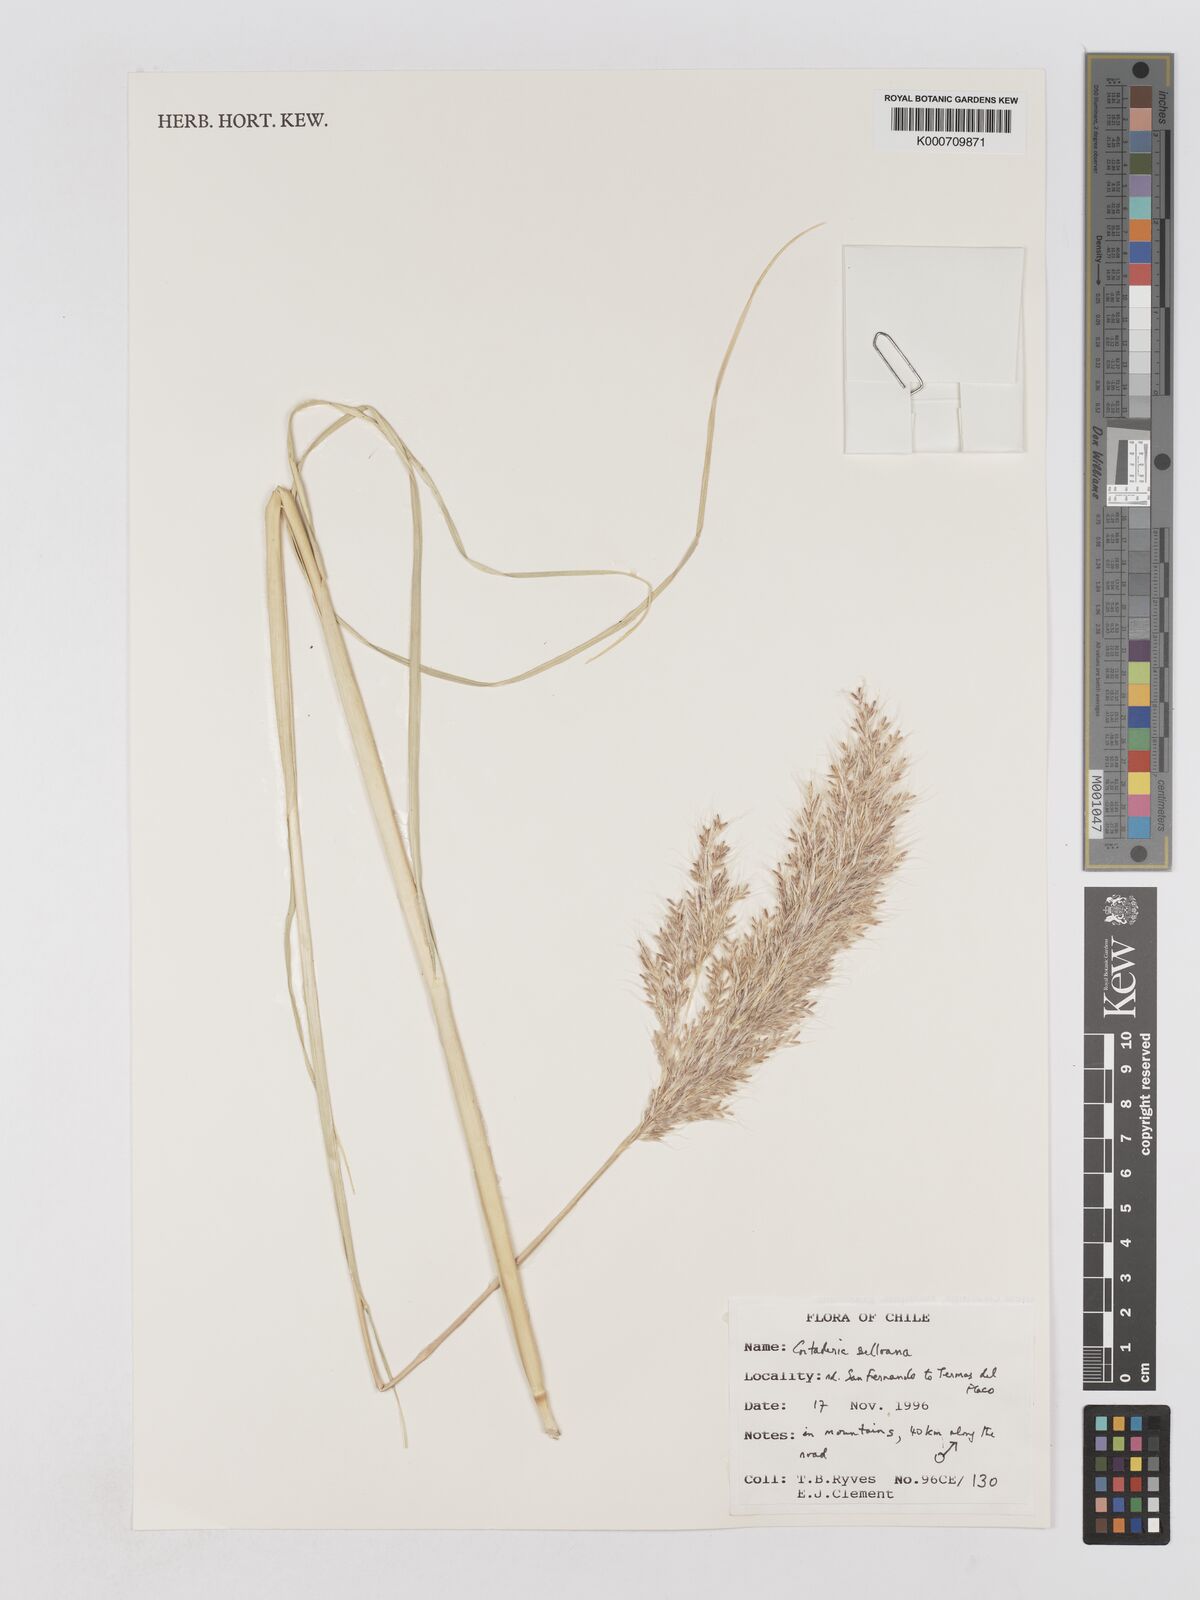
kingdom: Plantae
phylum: Tracheophyta
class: Liliopsida
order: Poales
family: Poaceae
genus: Cortaderia
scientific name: Cortaderia selloana
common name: Uruguayan pampas grass
